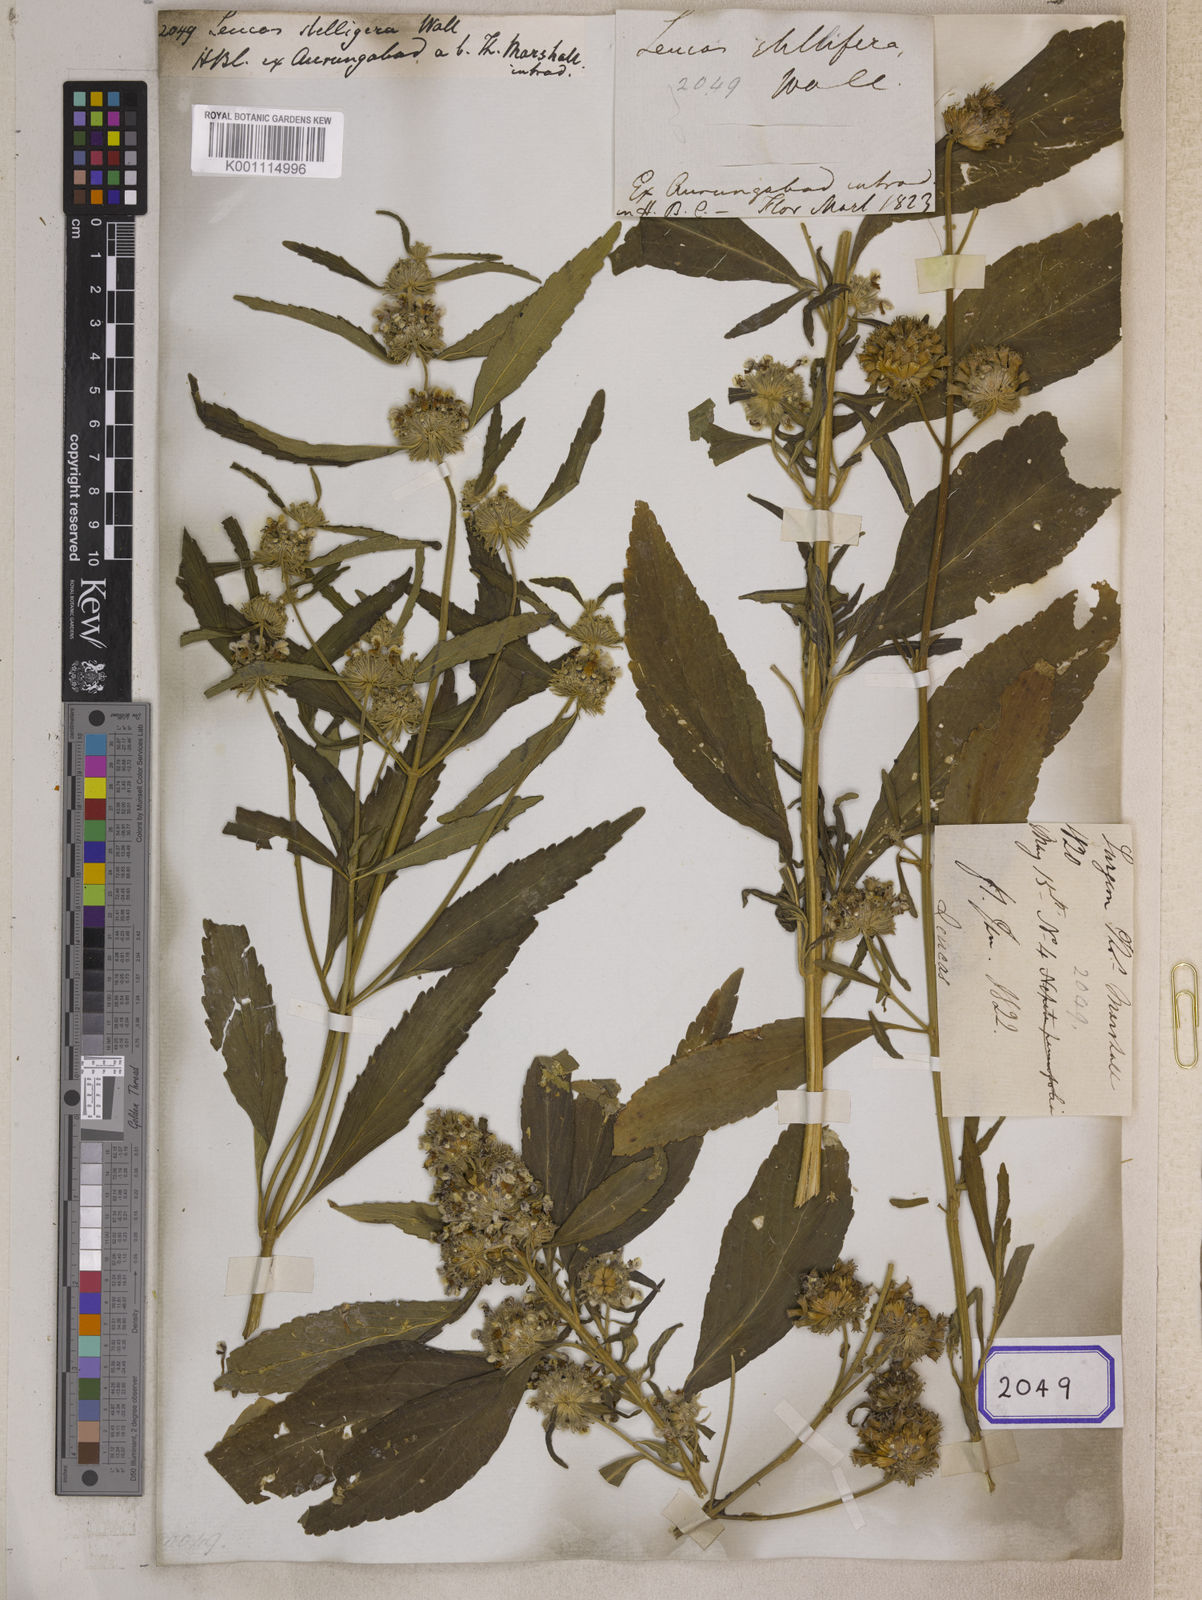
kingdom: Plantae
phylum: Tracheophyta
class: Magnoliopsida
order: Lamiales
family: Lamiaceae
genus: Leucas
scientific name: Leucas
